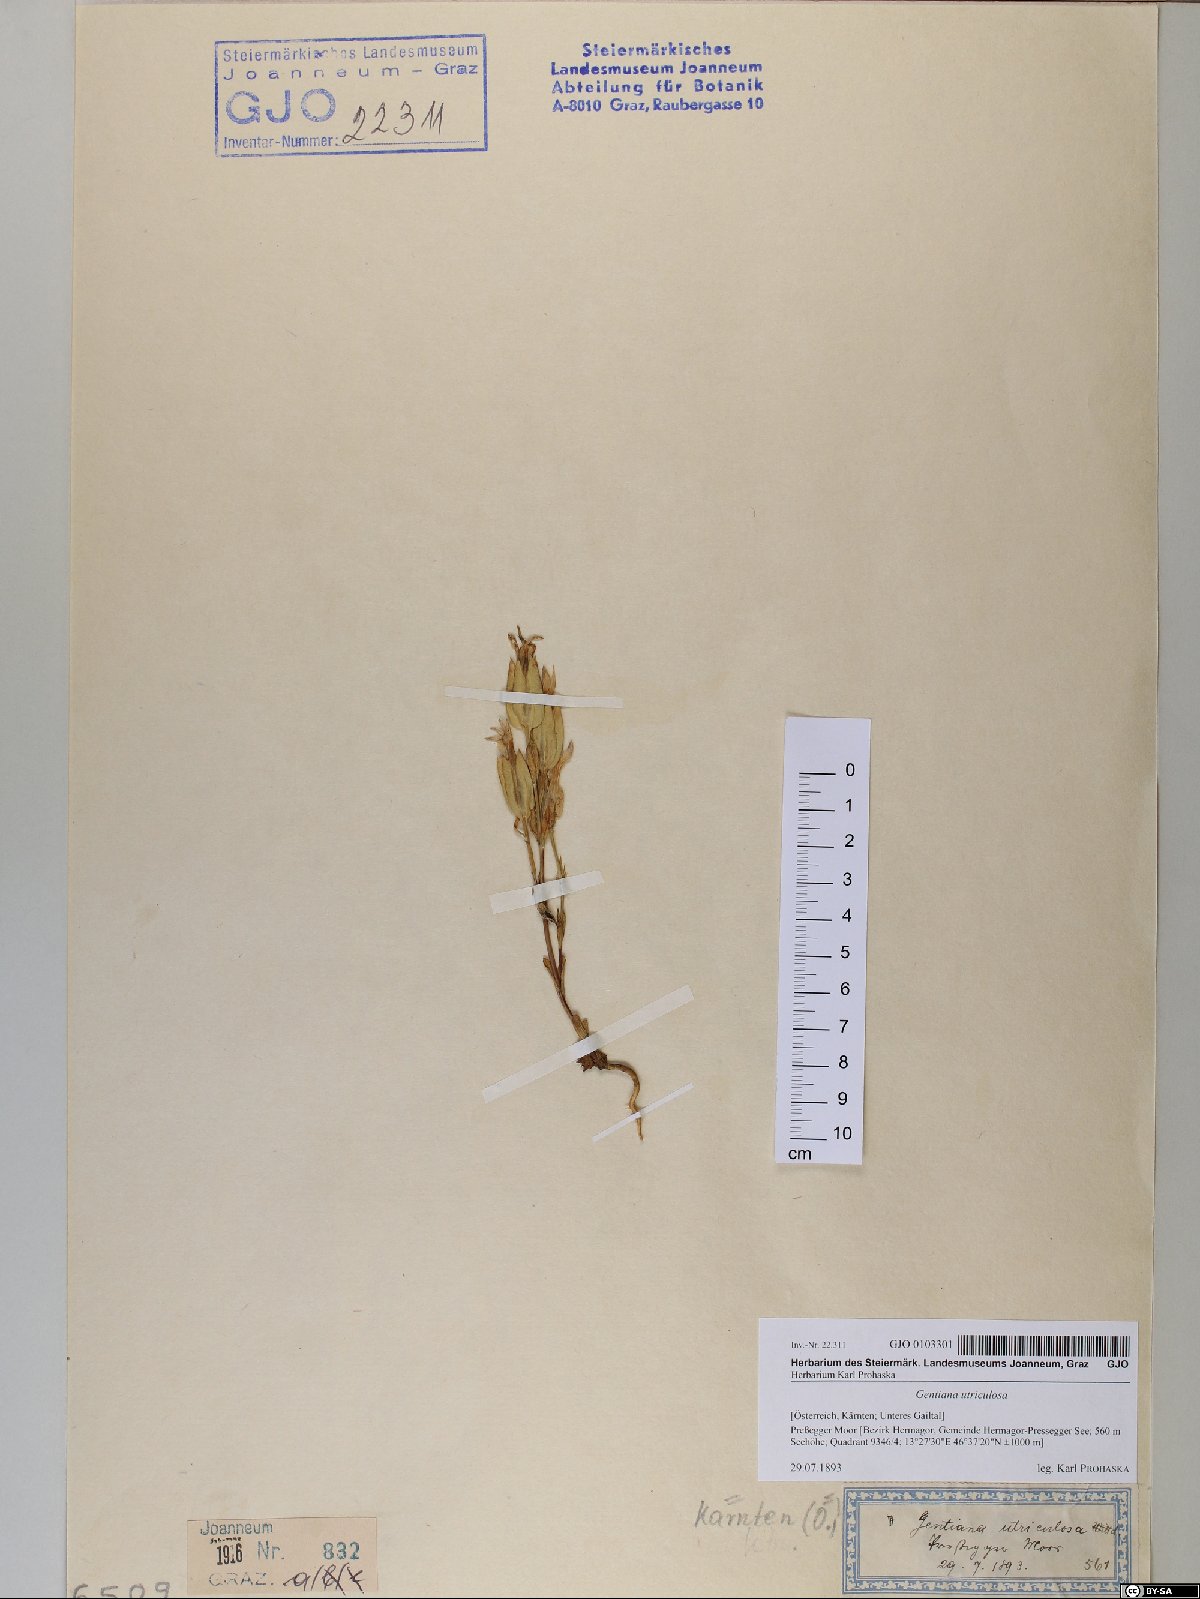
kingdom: Plantae
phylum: Tracheophyta
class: Magnoliopsida
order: Gentianales
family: Gentianaceae
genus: Gentiana
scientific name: Gentiana utriculosa
